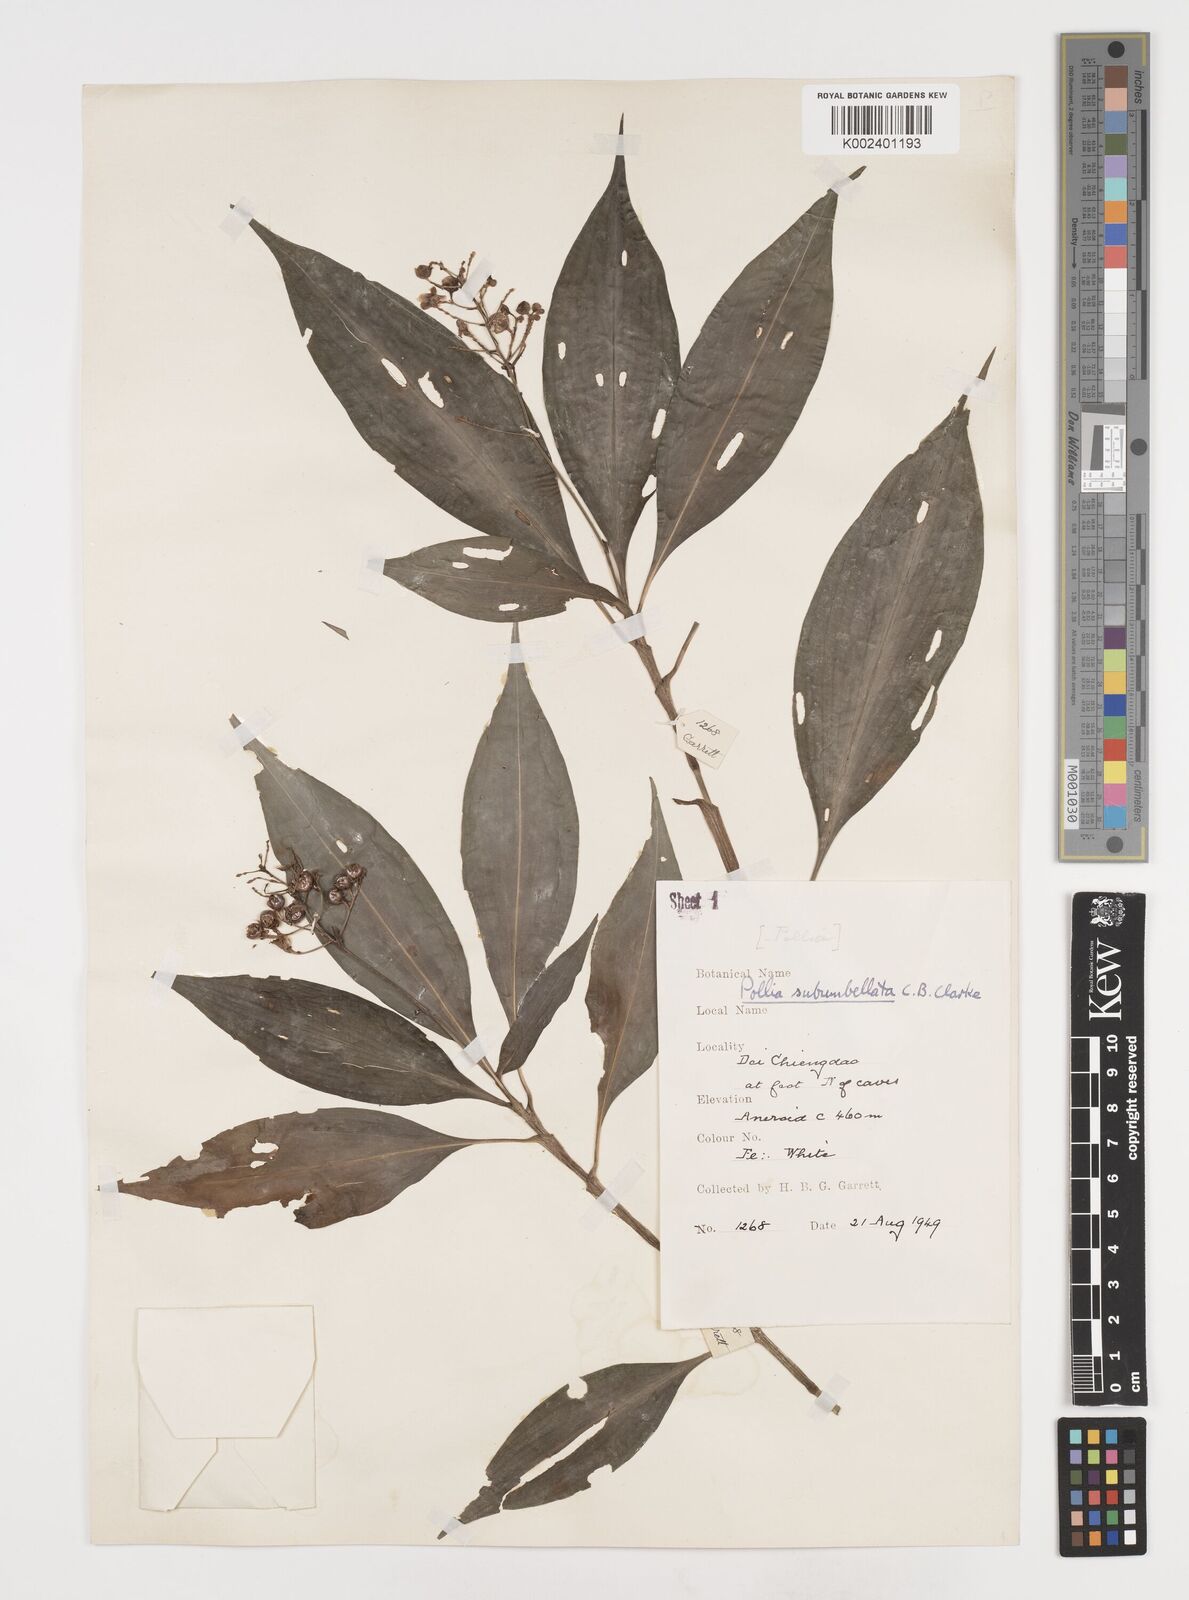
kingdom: Plantae
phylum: Tracheophyta
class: Liliopsida
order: Commelinales
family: Commelinaceae
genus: Pollia
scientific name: Pollia secundiflora
